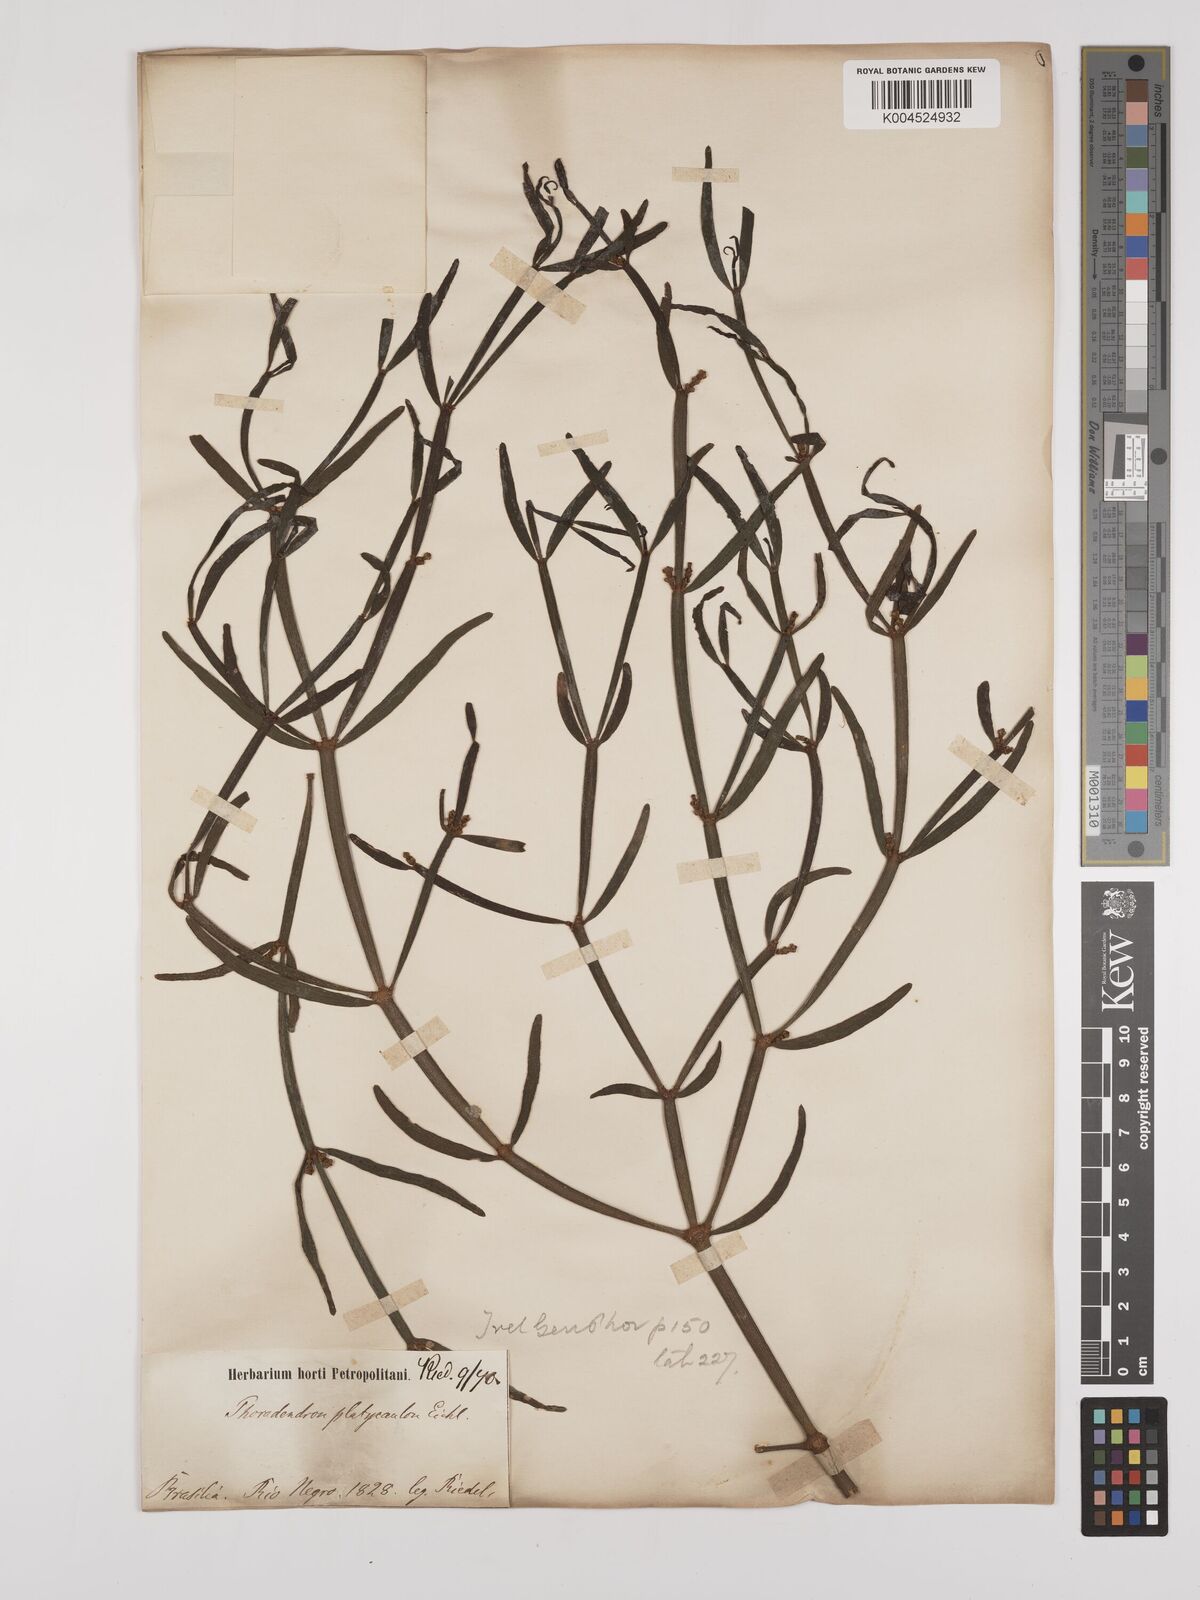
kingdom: Plantae
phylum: Tracheophyta
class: Magnoliopsida
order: Santalales
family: Viscaceae
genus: Phoradendron
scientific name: Phoradendron planiphyllum
